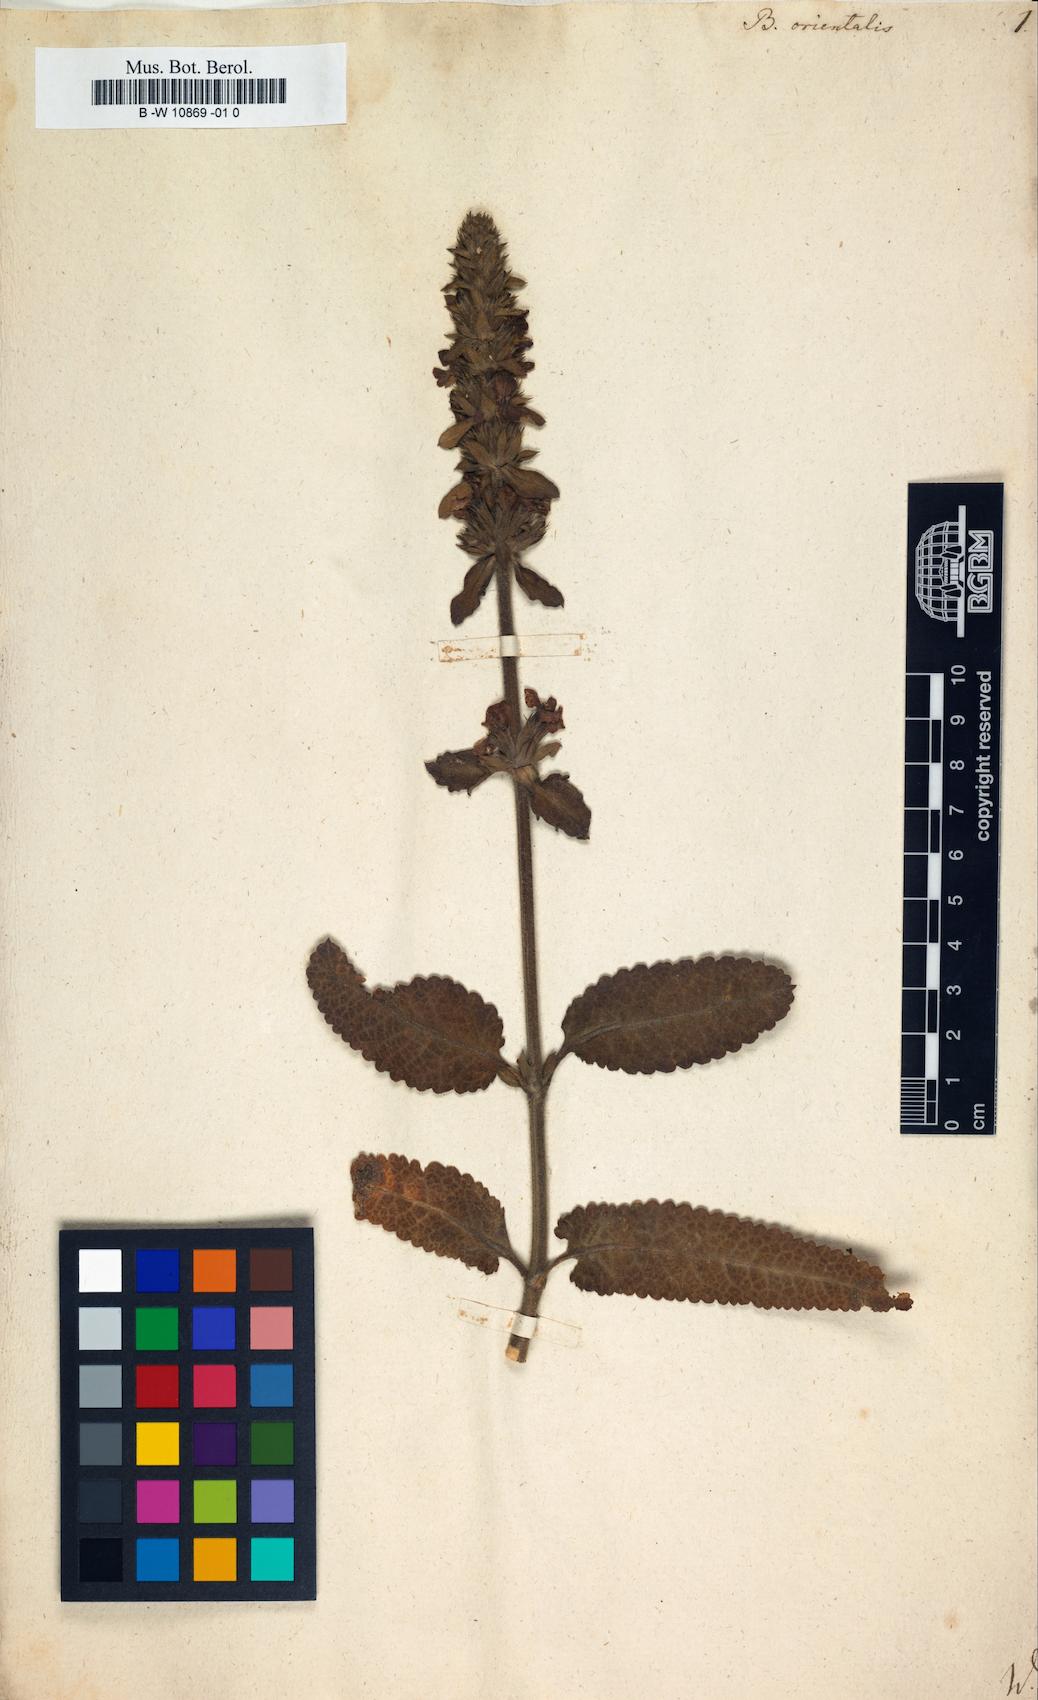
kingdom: Plantae
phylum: Tracheophyta
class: Magnoliopsida
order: Lamiales
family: Lamiaceae
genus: Betonica
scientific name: Betonica orientalis
